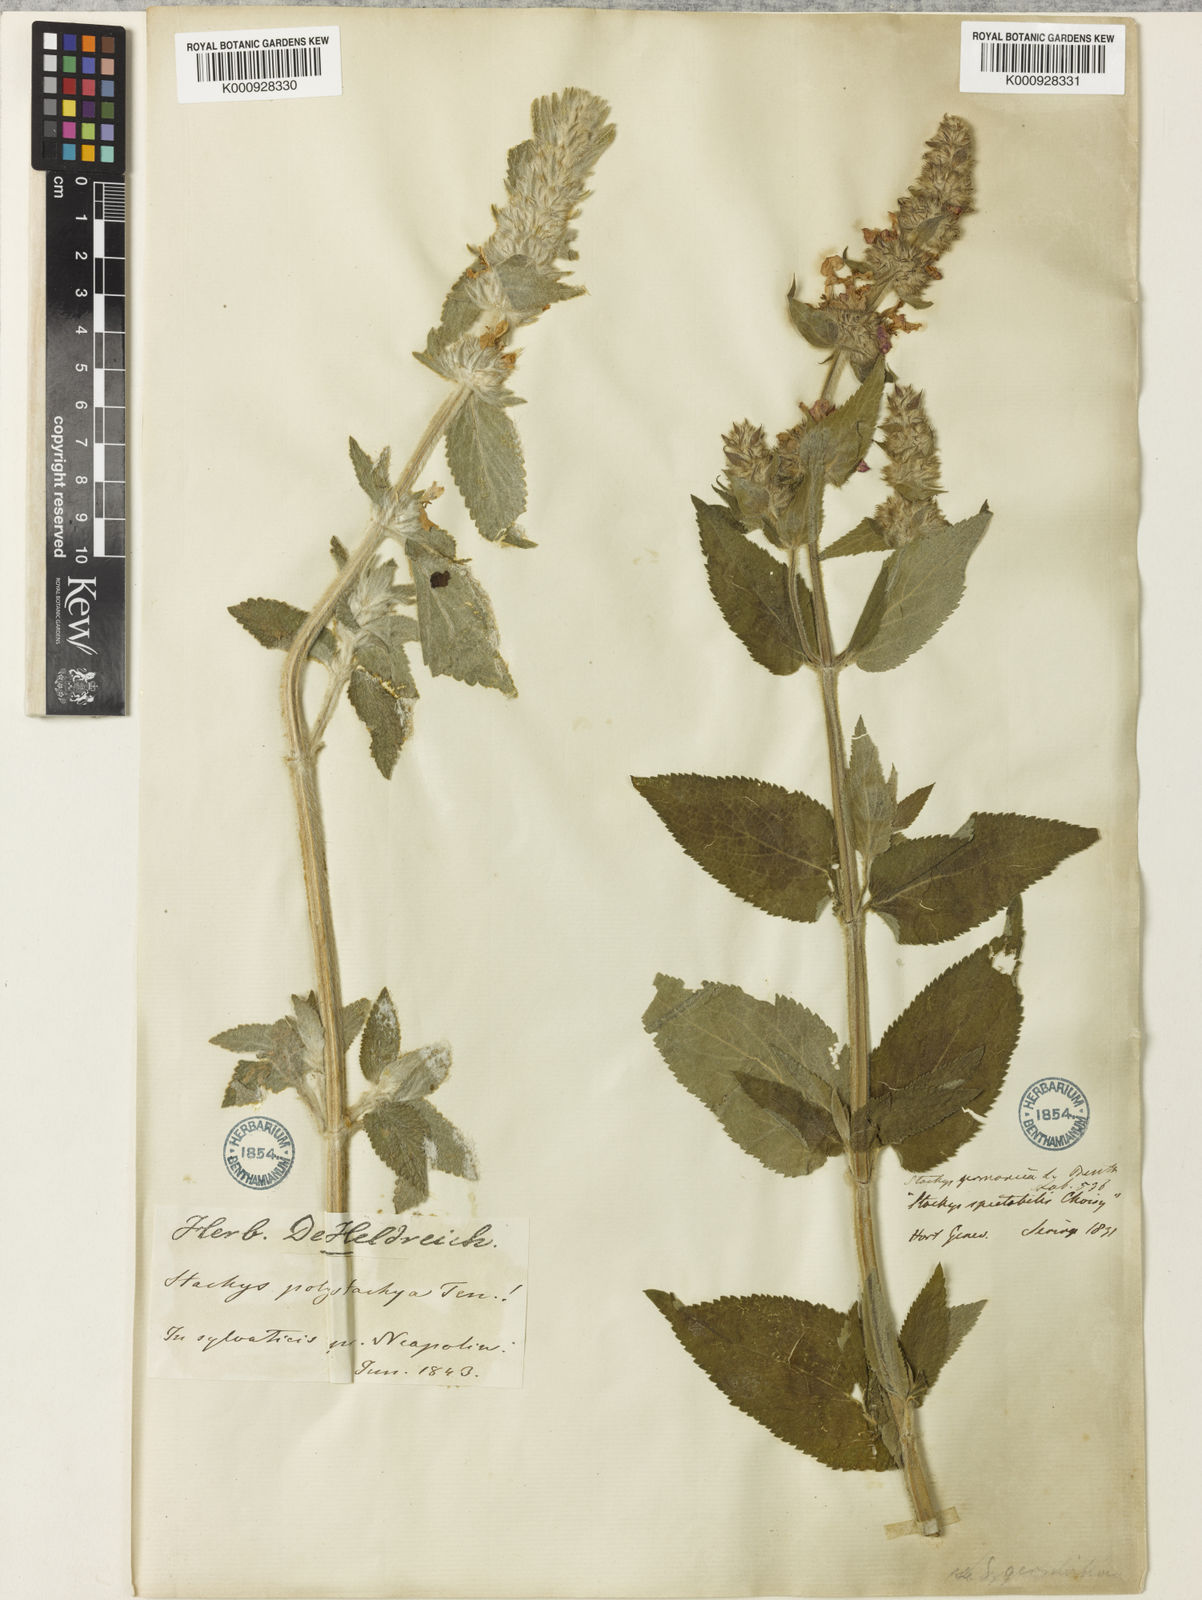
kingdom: Plantae
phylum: Tracheophyta
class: Magnoliopsida
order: Lamiales
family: Lamiaceae
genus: Stachys
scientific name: Stachys germanica
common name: Downy woundwort
